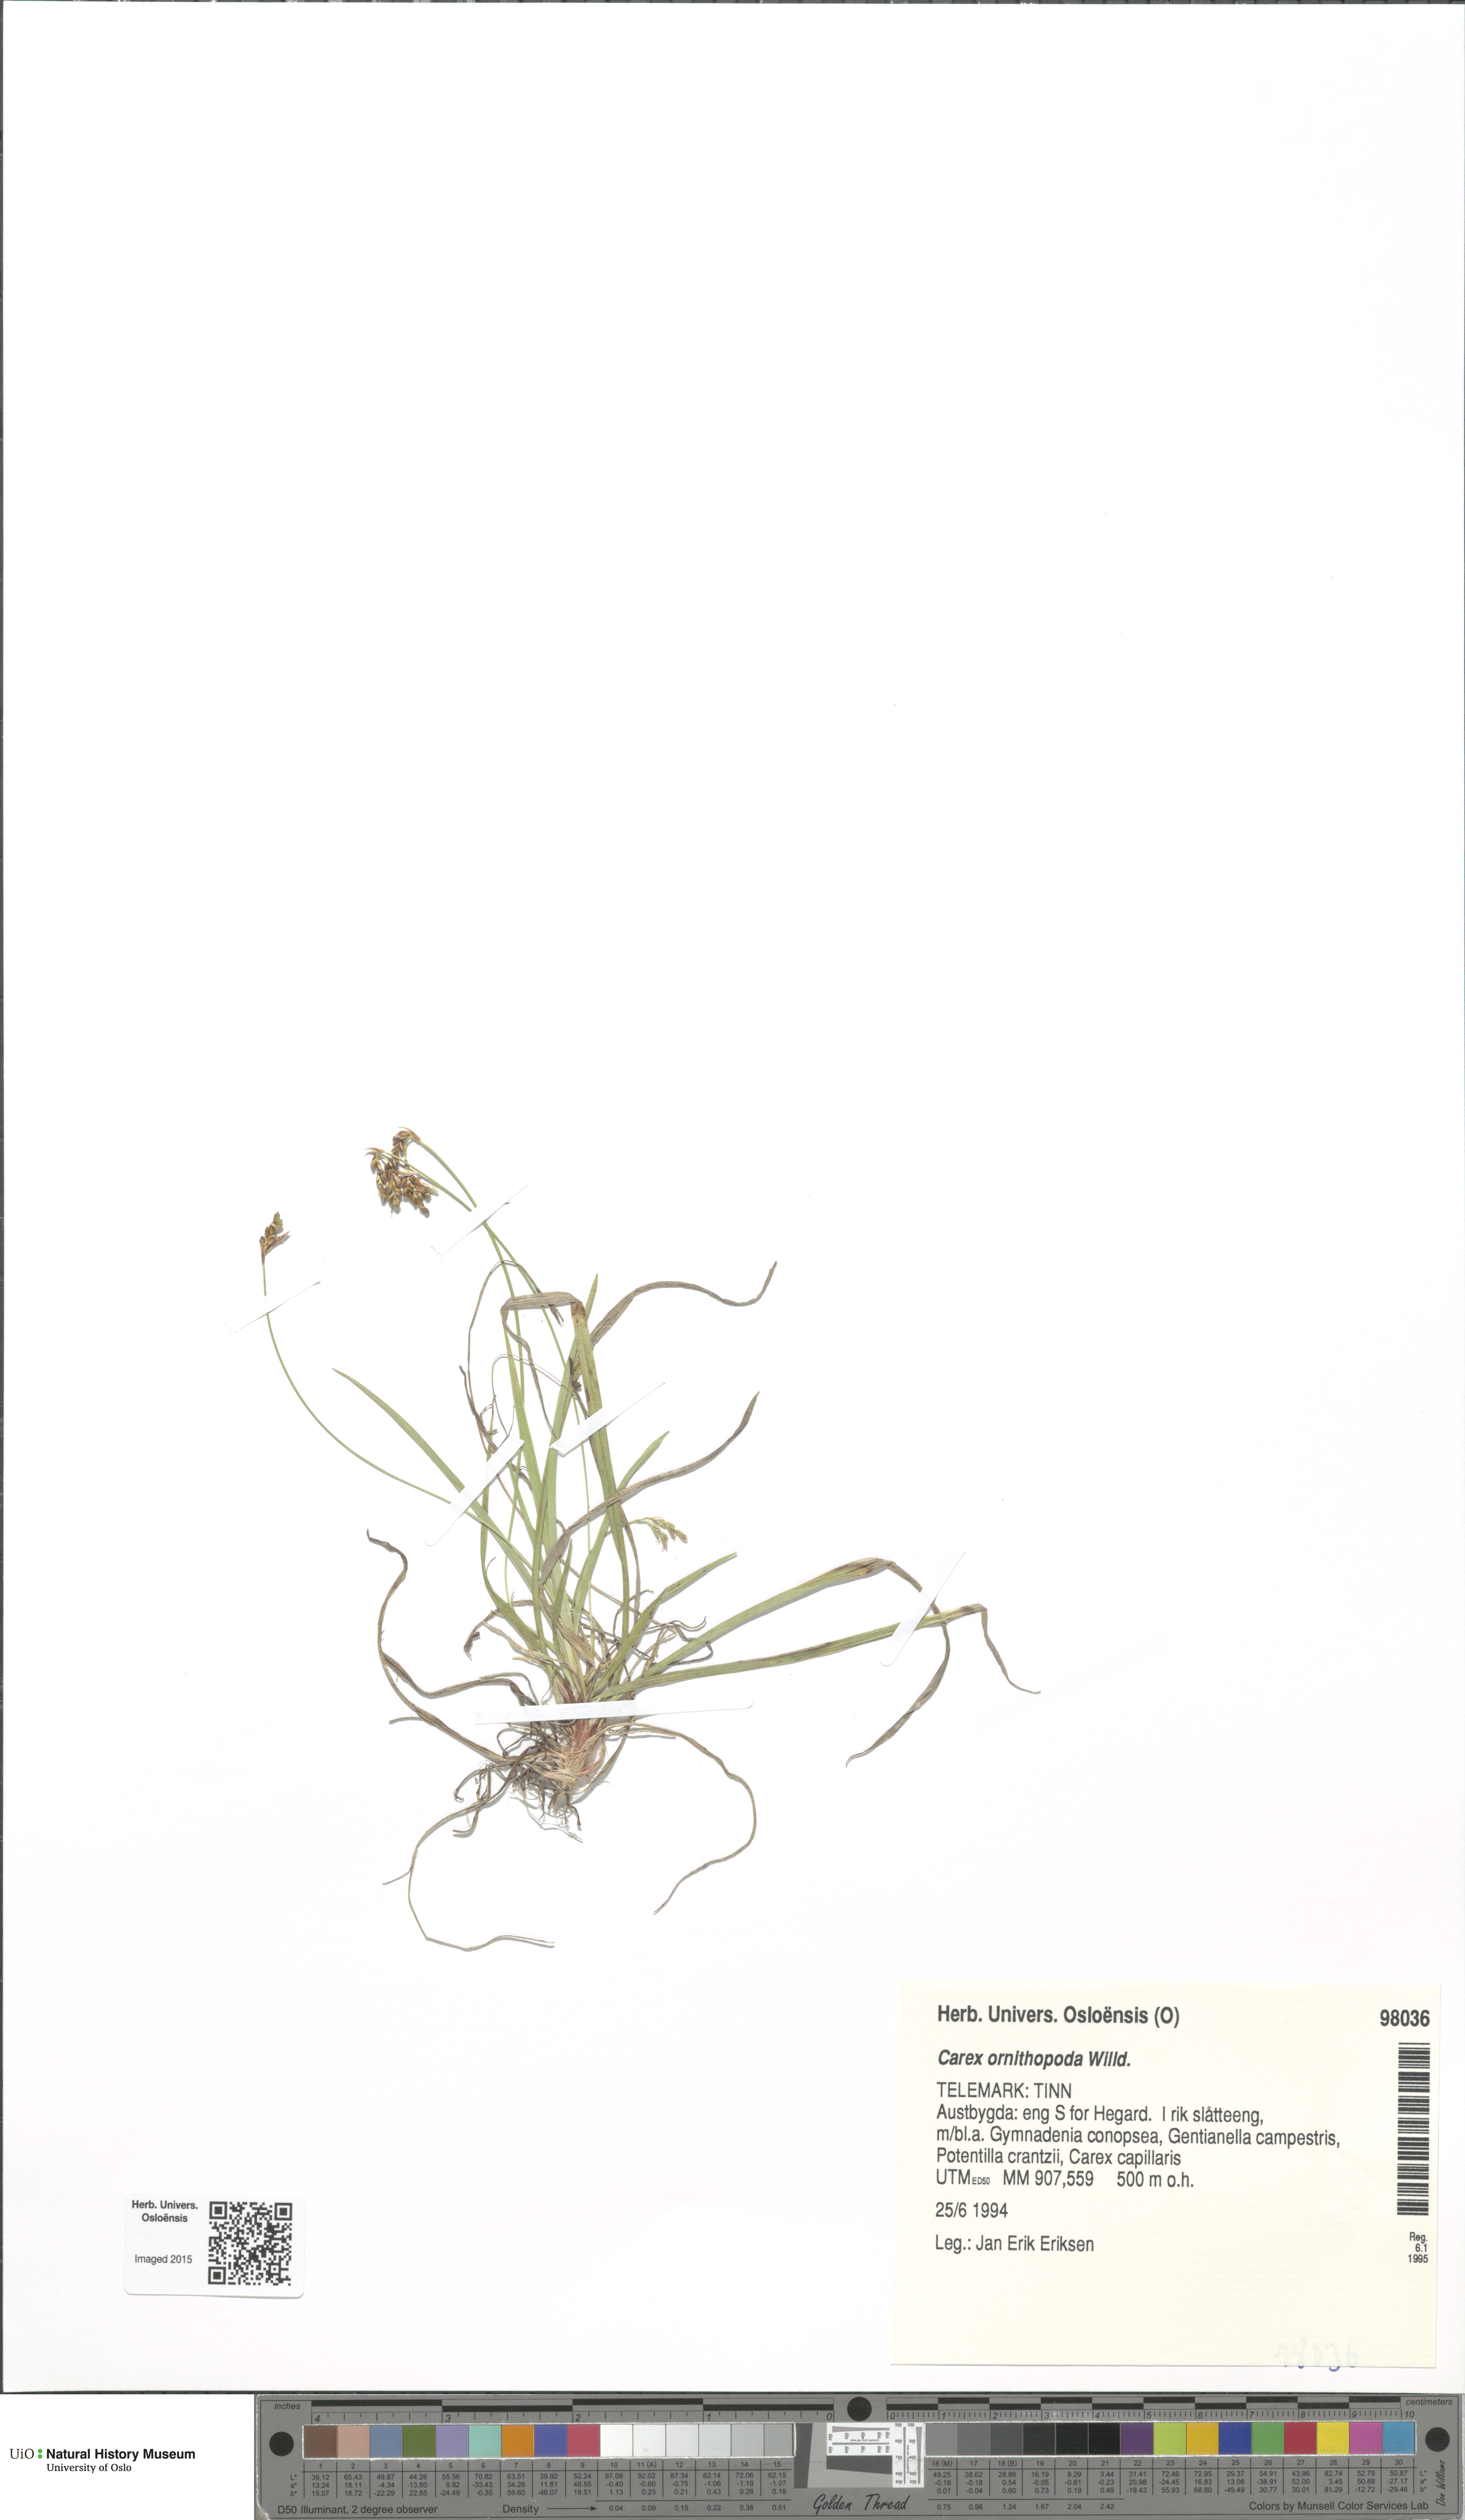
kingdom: Plantae
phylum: Tracheophyta
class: Liliopsida
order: Poales
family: Cyperaceae
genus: Carex
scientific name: Carex ornithopoda
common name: Bird's-foot sedge
